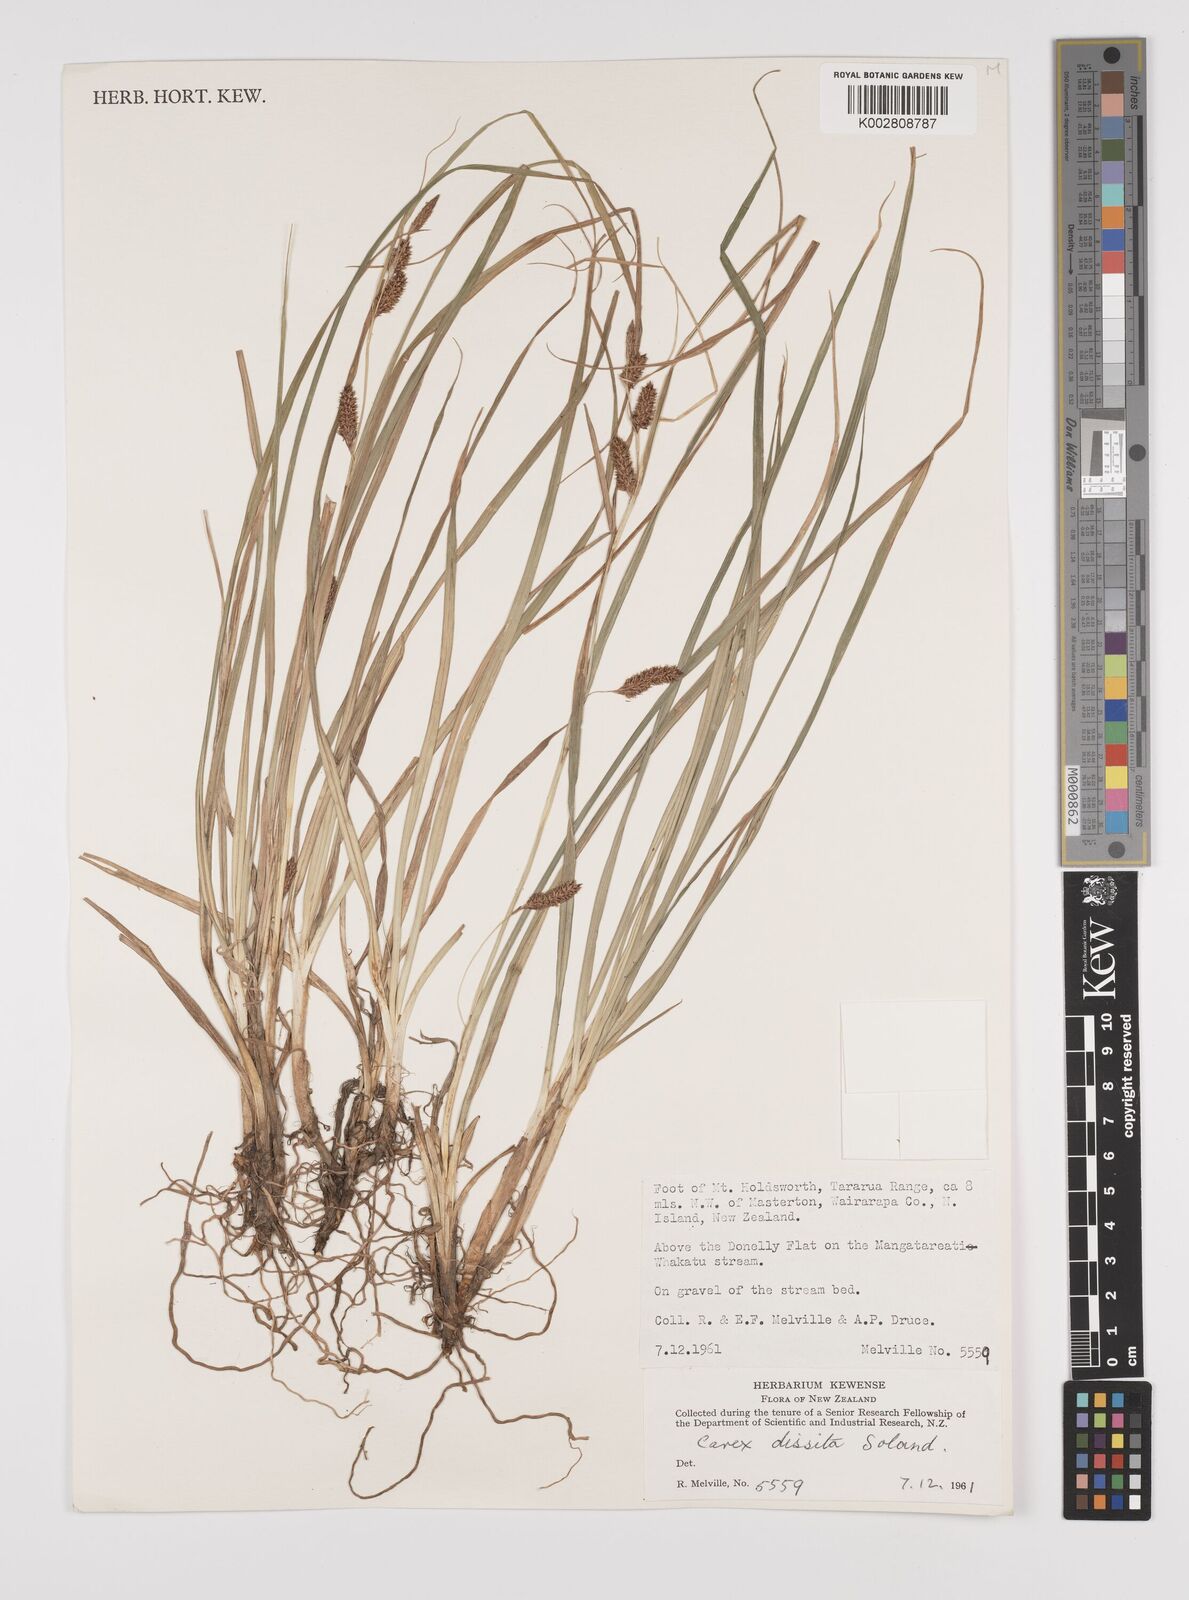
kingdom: Plantae
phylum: Tracheophyta
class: Liliopsida
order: Poales
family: Cyperaceae
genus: Carex
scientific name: Carex dissita
